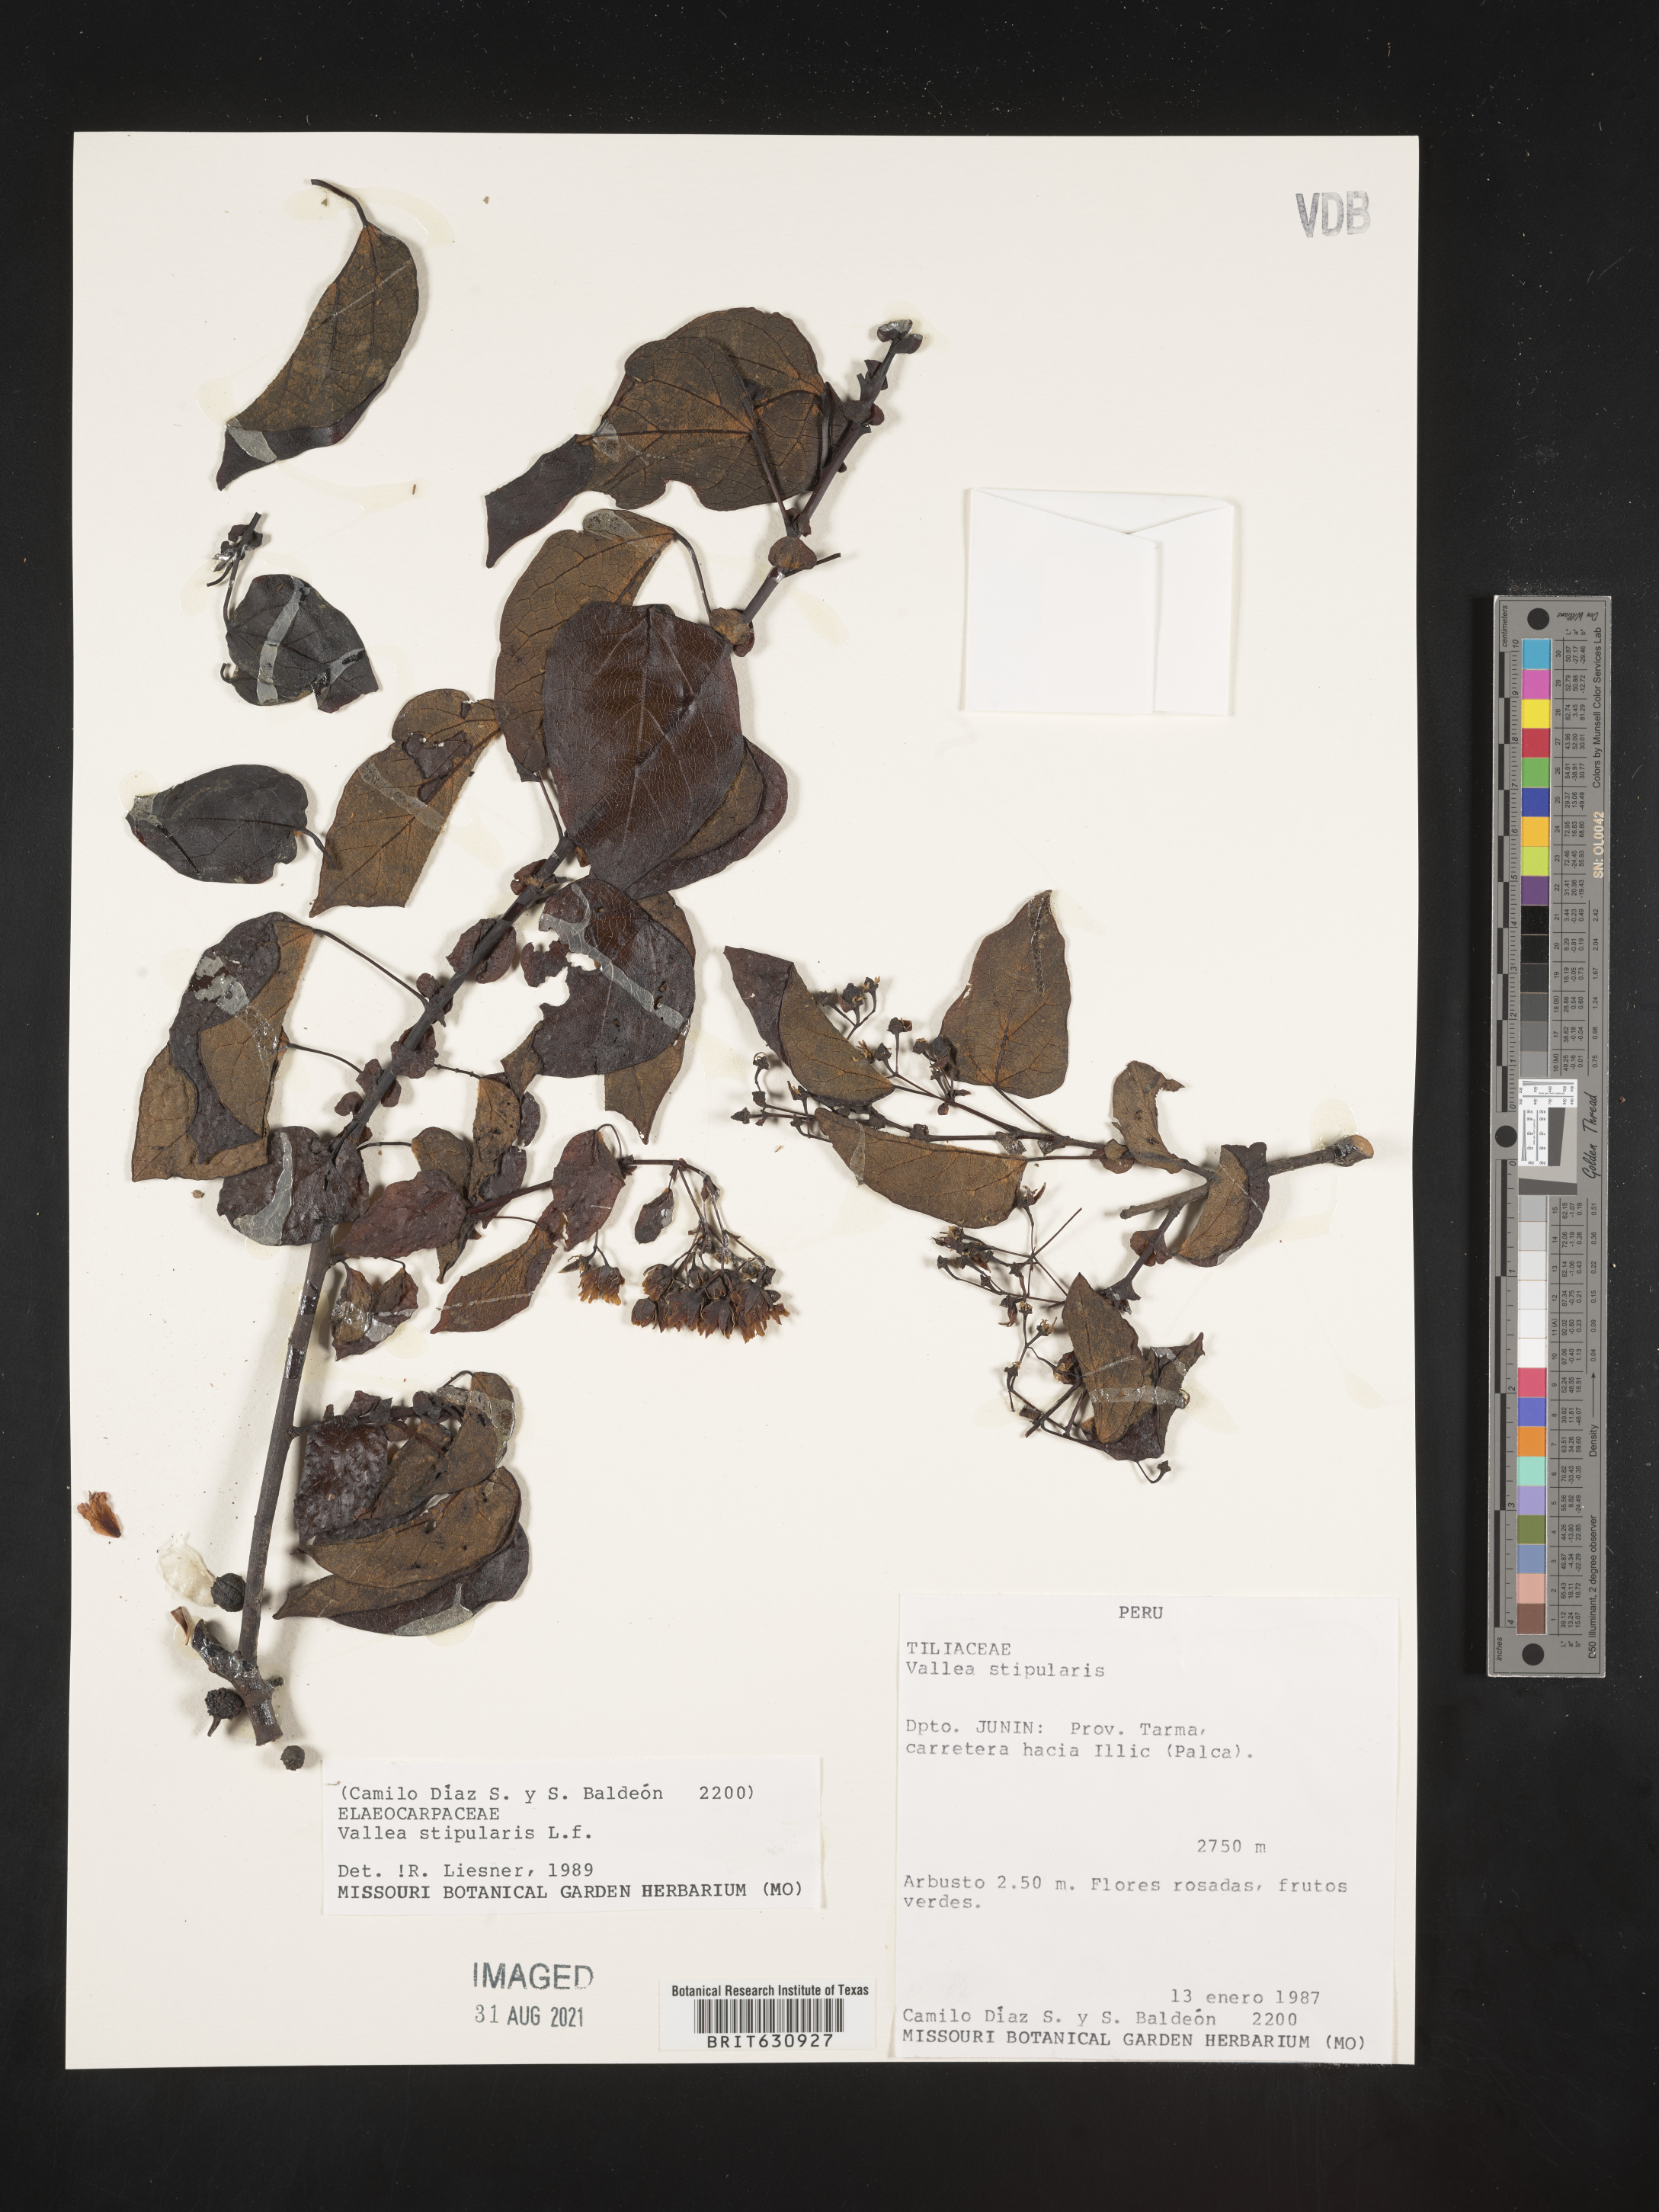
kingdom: Plantae
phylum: Tracheophyta
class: Magnoliopsida
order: Oxalidales
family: Elaeocarpaceae
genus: Vallea
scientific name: Vallea
